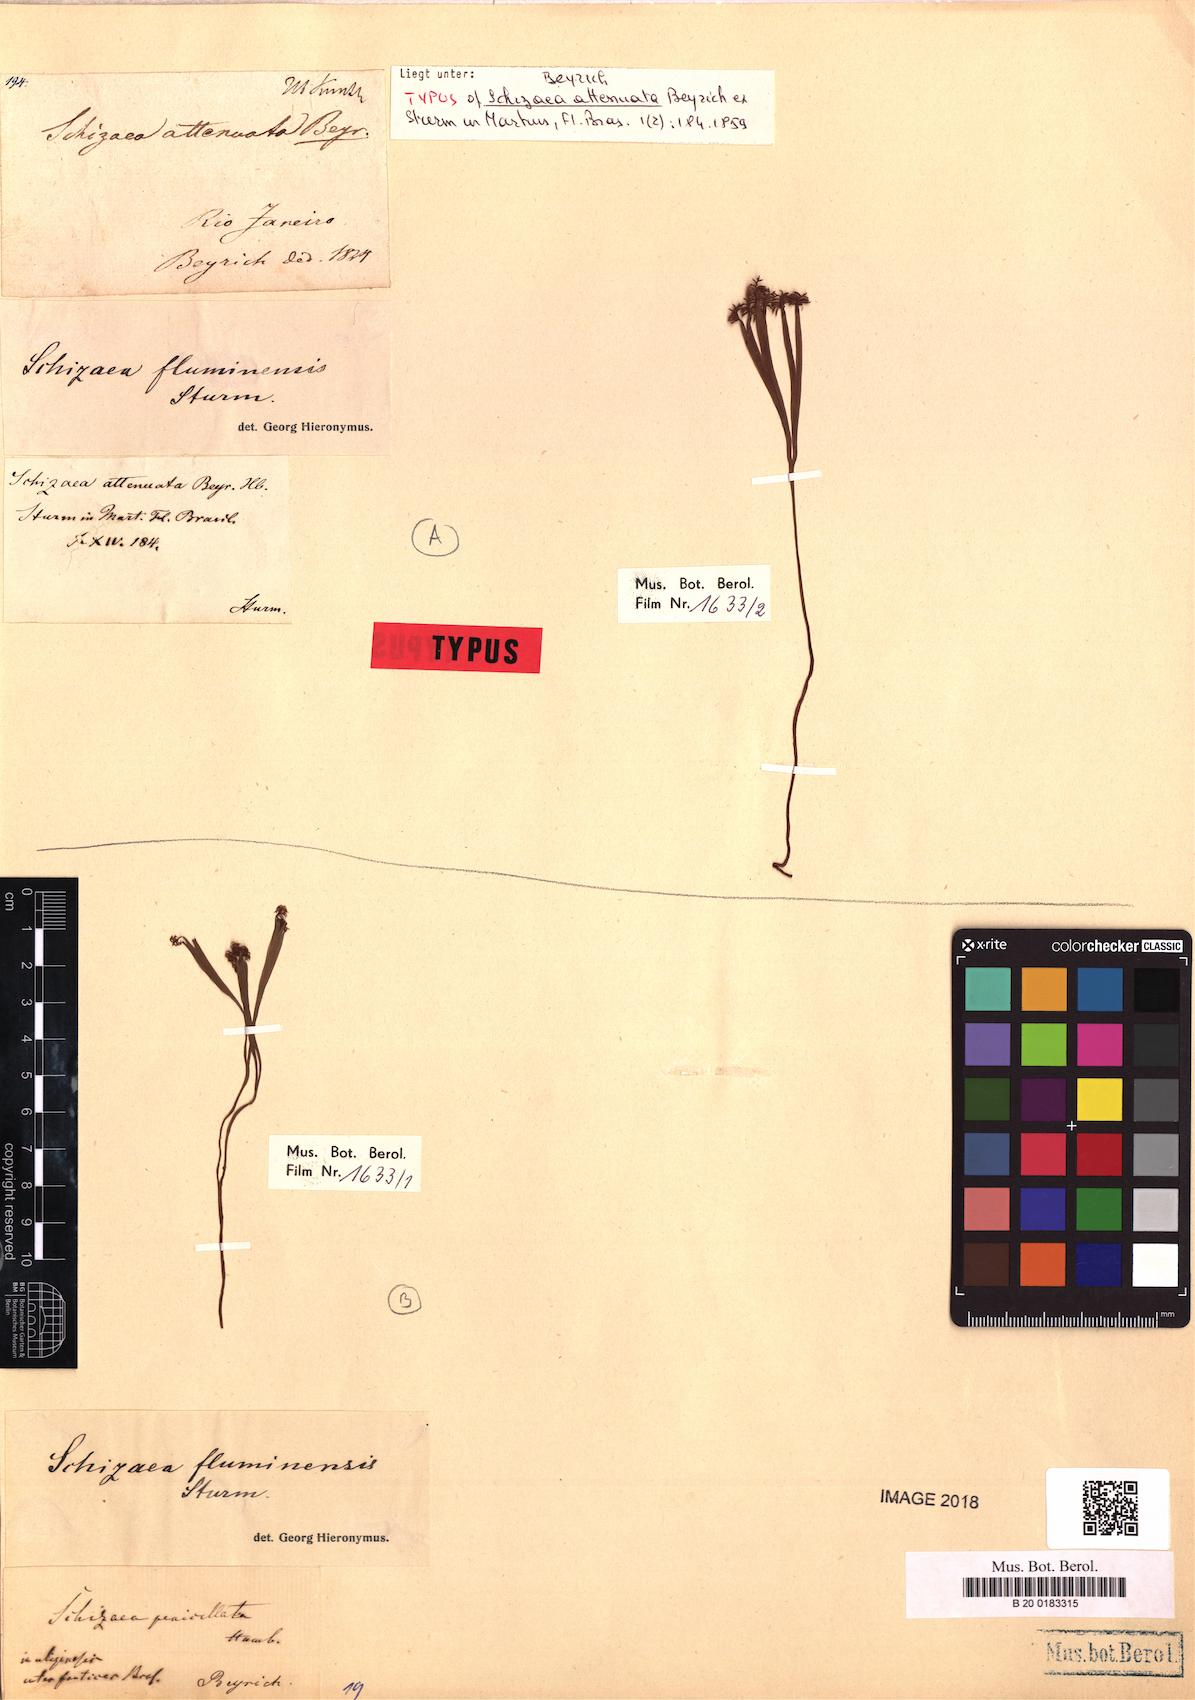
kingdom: Plantae
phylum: Tracheophyta
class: Magnoliopsida
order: Caryophyllales
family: Polygonaceae
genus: Coccoloba
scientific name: Coccoloba ruiziana
